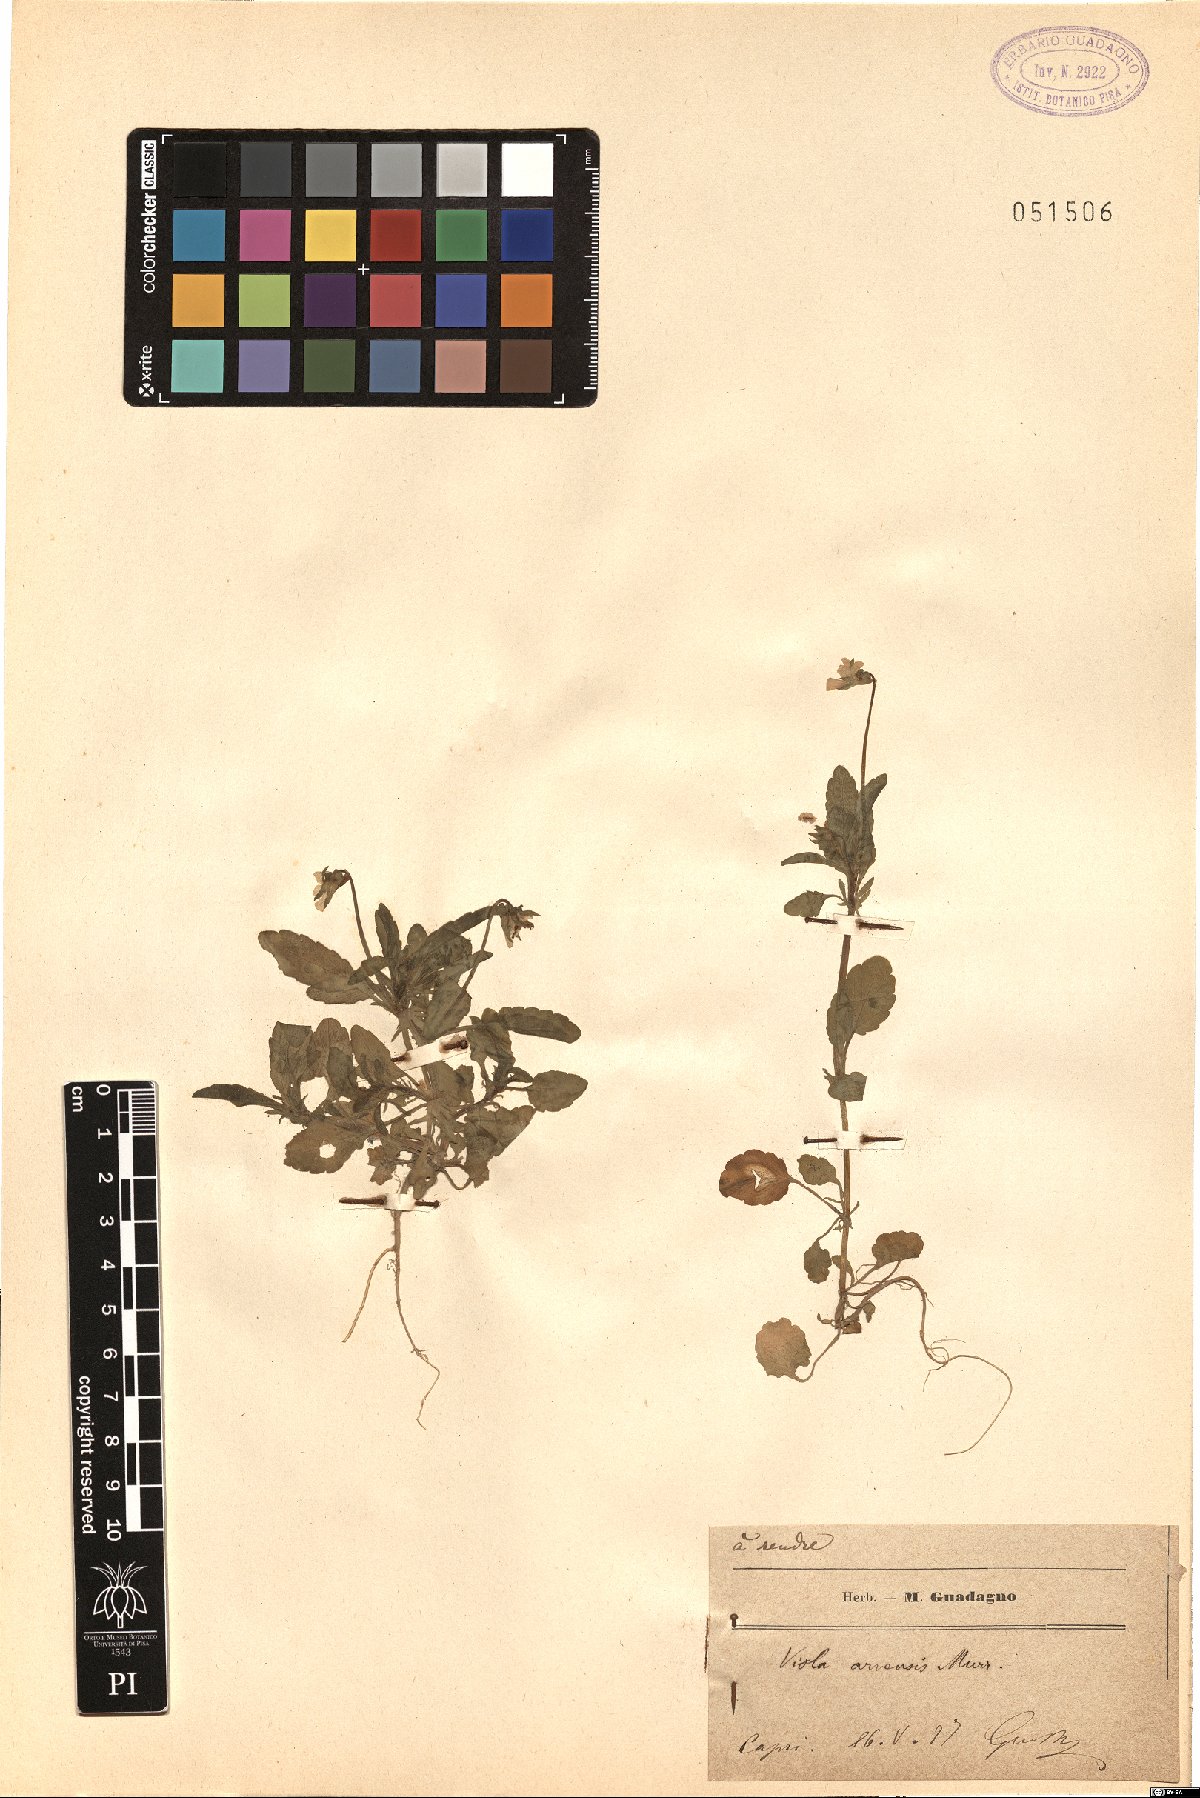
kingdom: Plantae
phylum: Tracheophyta
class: Magnoliopsida
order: Malpighiales
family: Violaceae
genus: Viola
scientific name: Viola arvensis
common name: Field pansy
